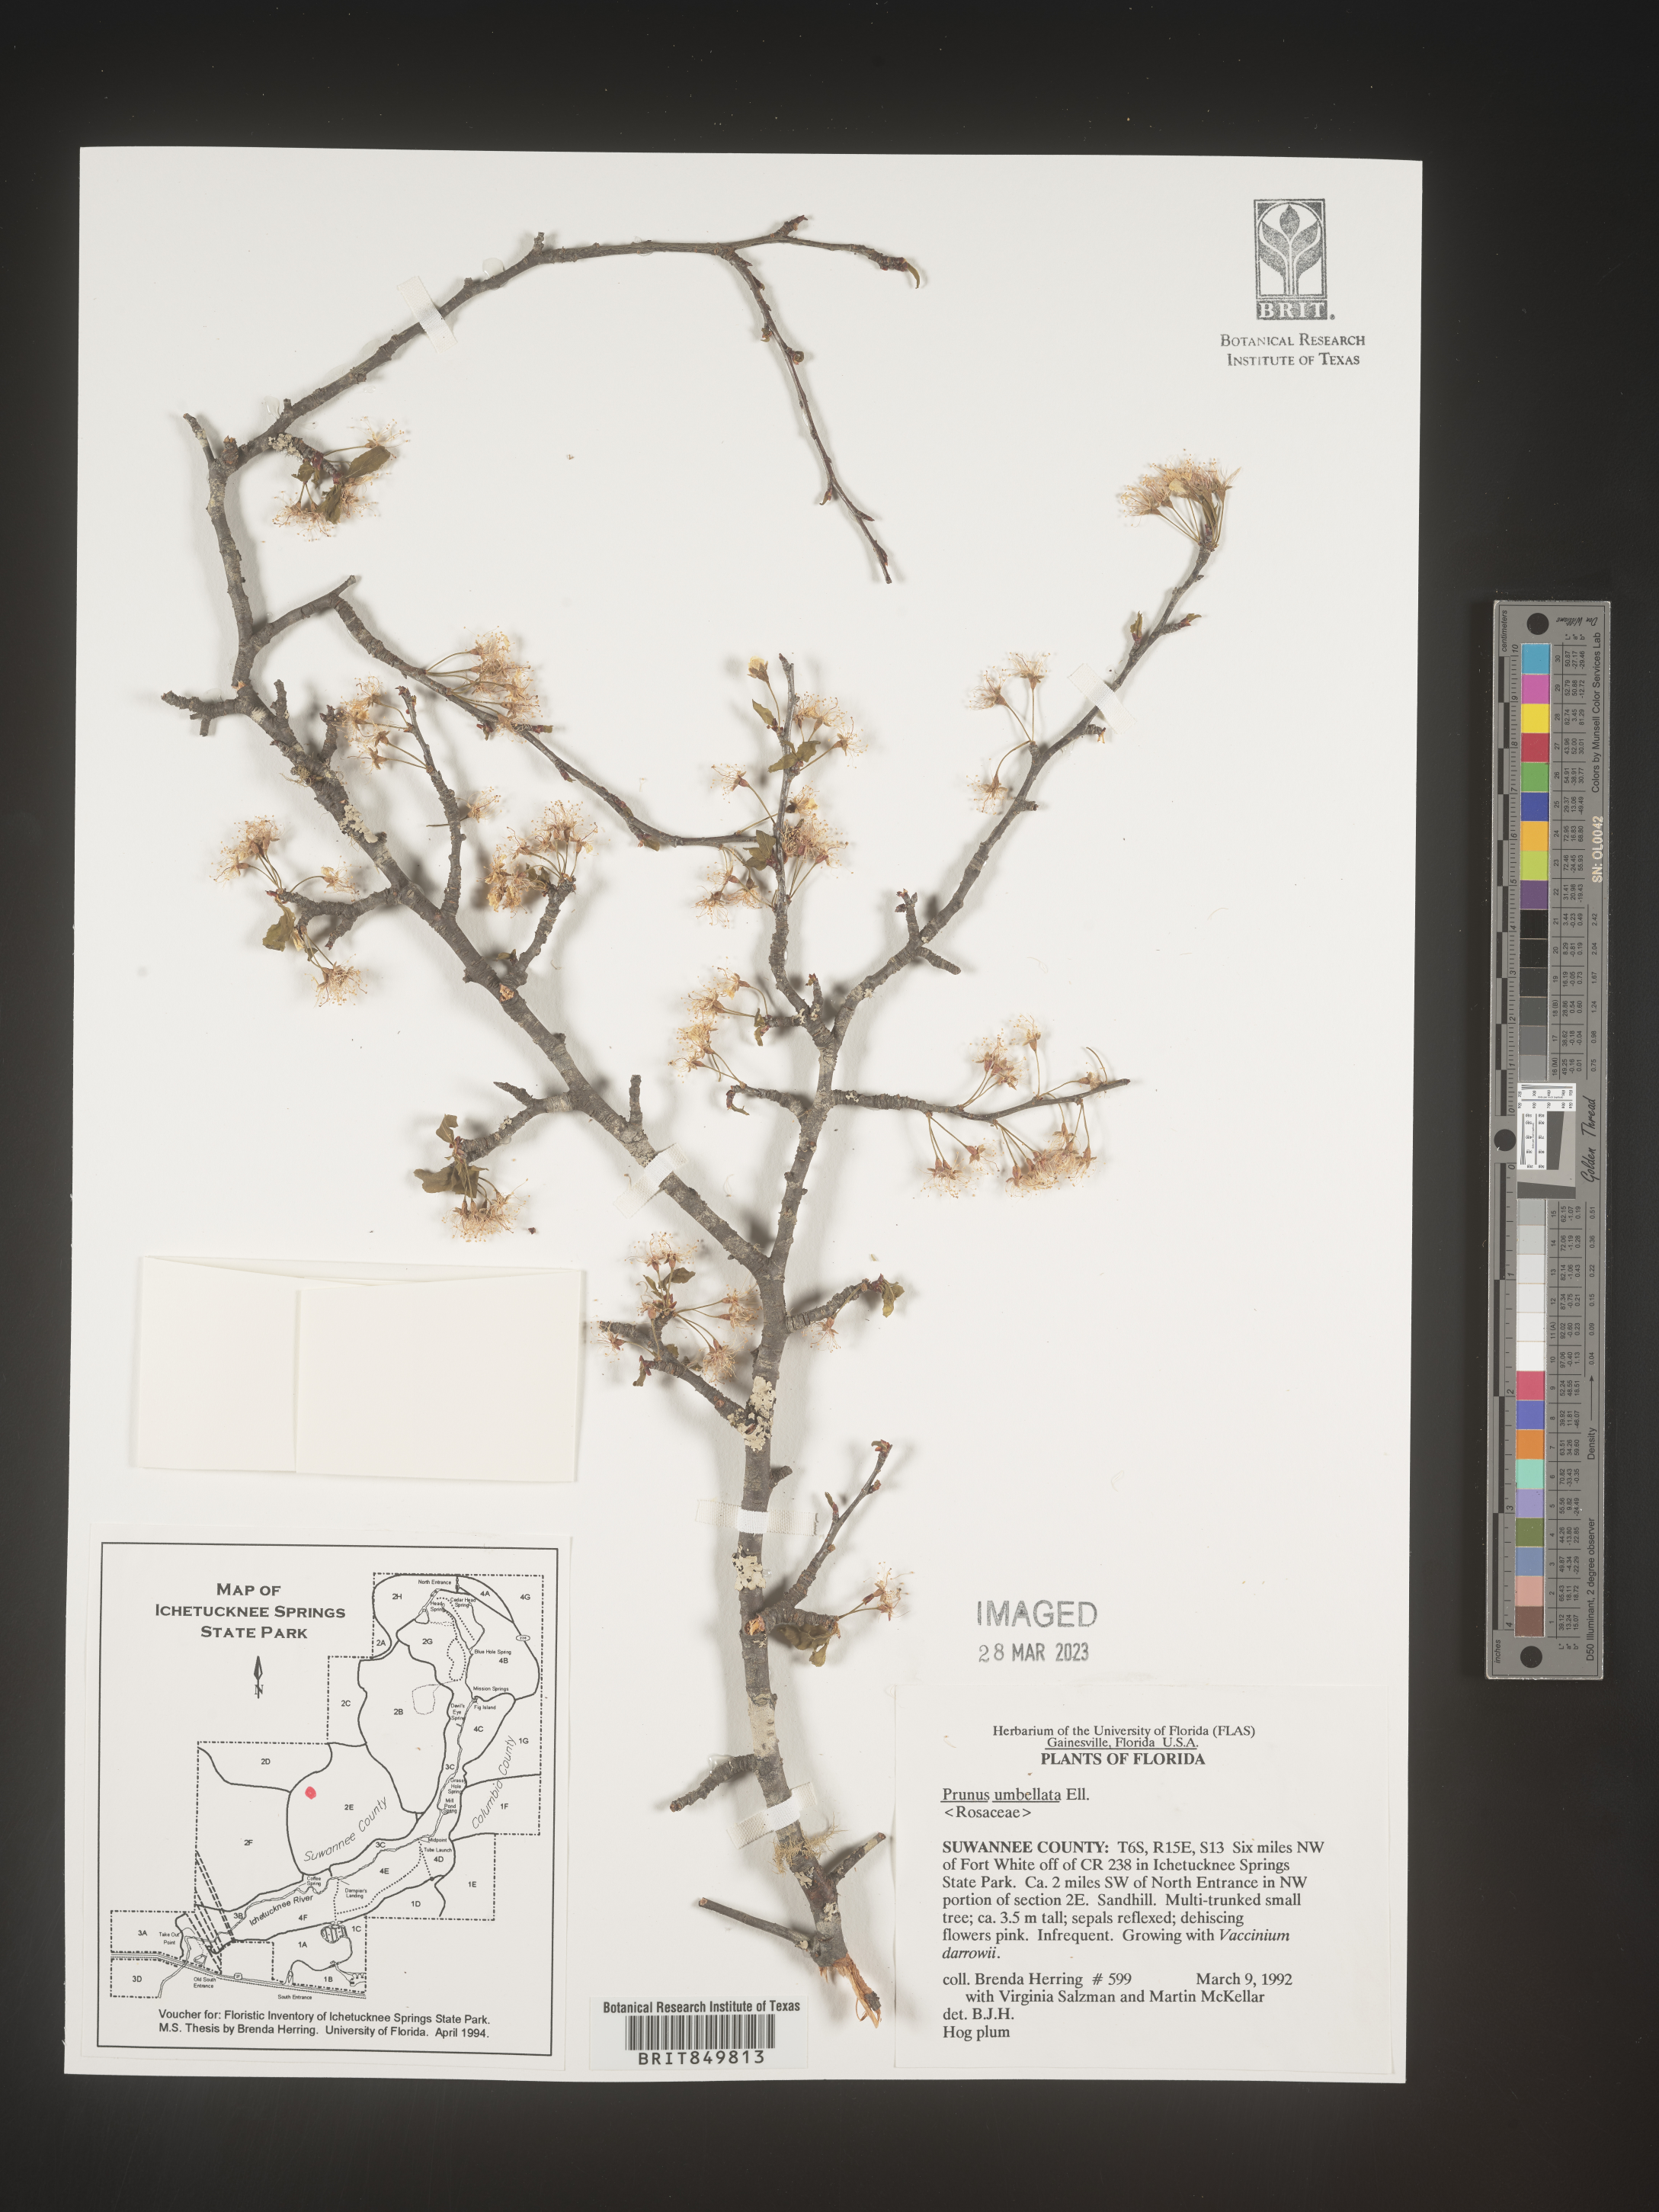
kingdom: Plantae
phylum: Tracheophyta
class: Magnoliopsida
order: Rosales
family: Rosaceae
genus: Prunus
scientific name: Prunus umbellata
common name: Allegheny plum
